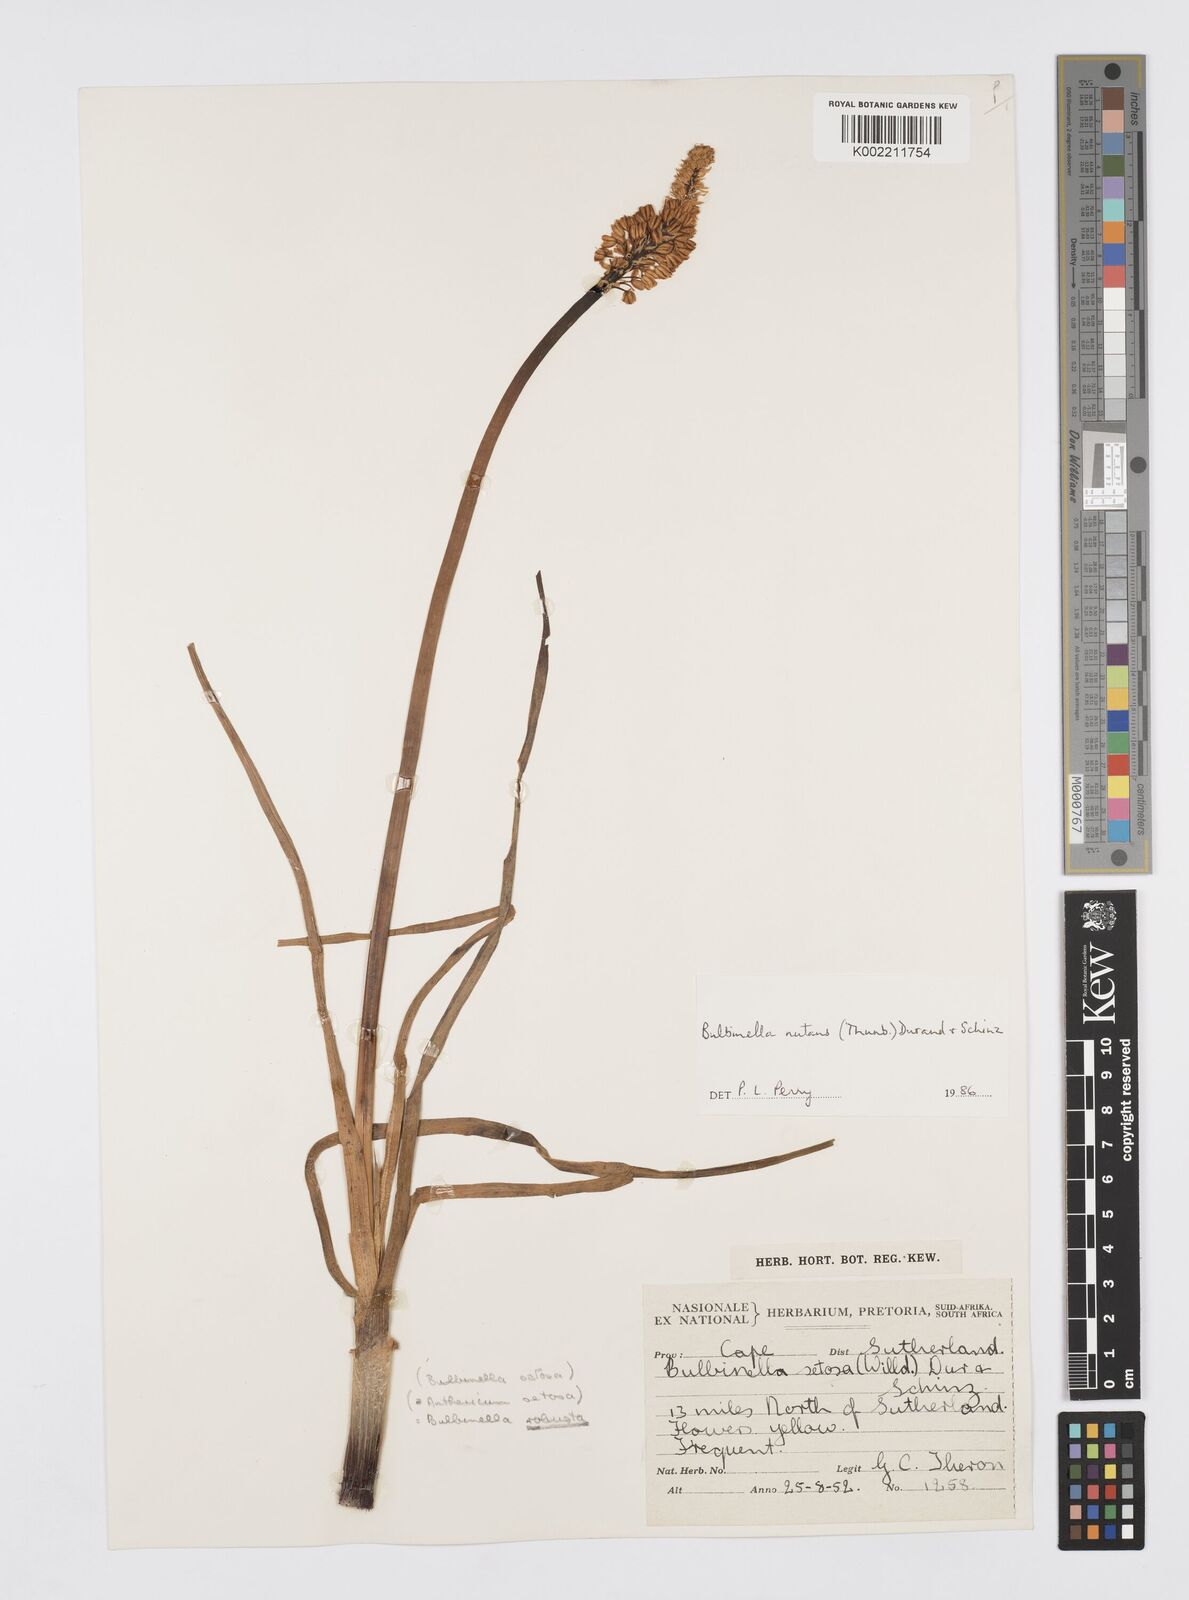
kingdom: Plantae
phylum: Tracheophyta
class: Liliopsida
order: Asparagales
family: Asphodelaceae
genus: Bulbinella
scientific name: Bulbinella nutans
